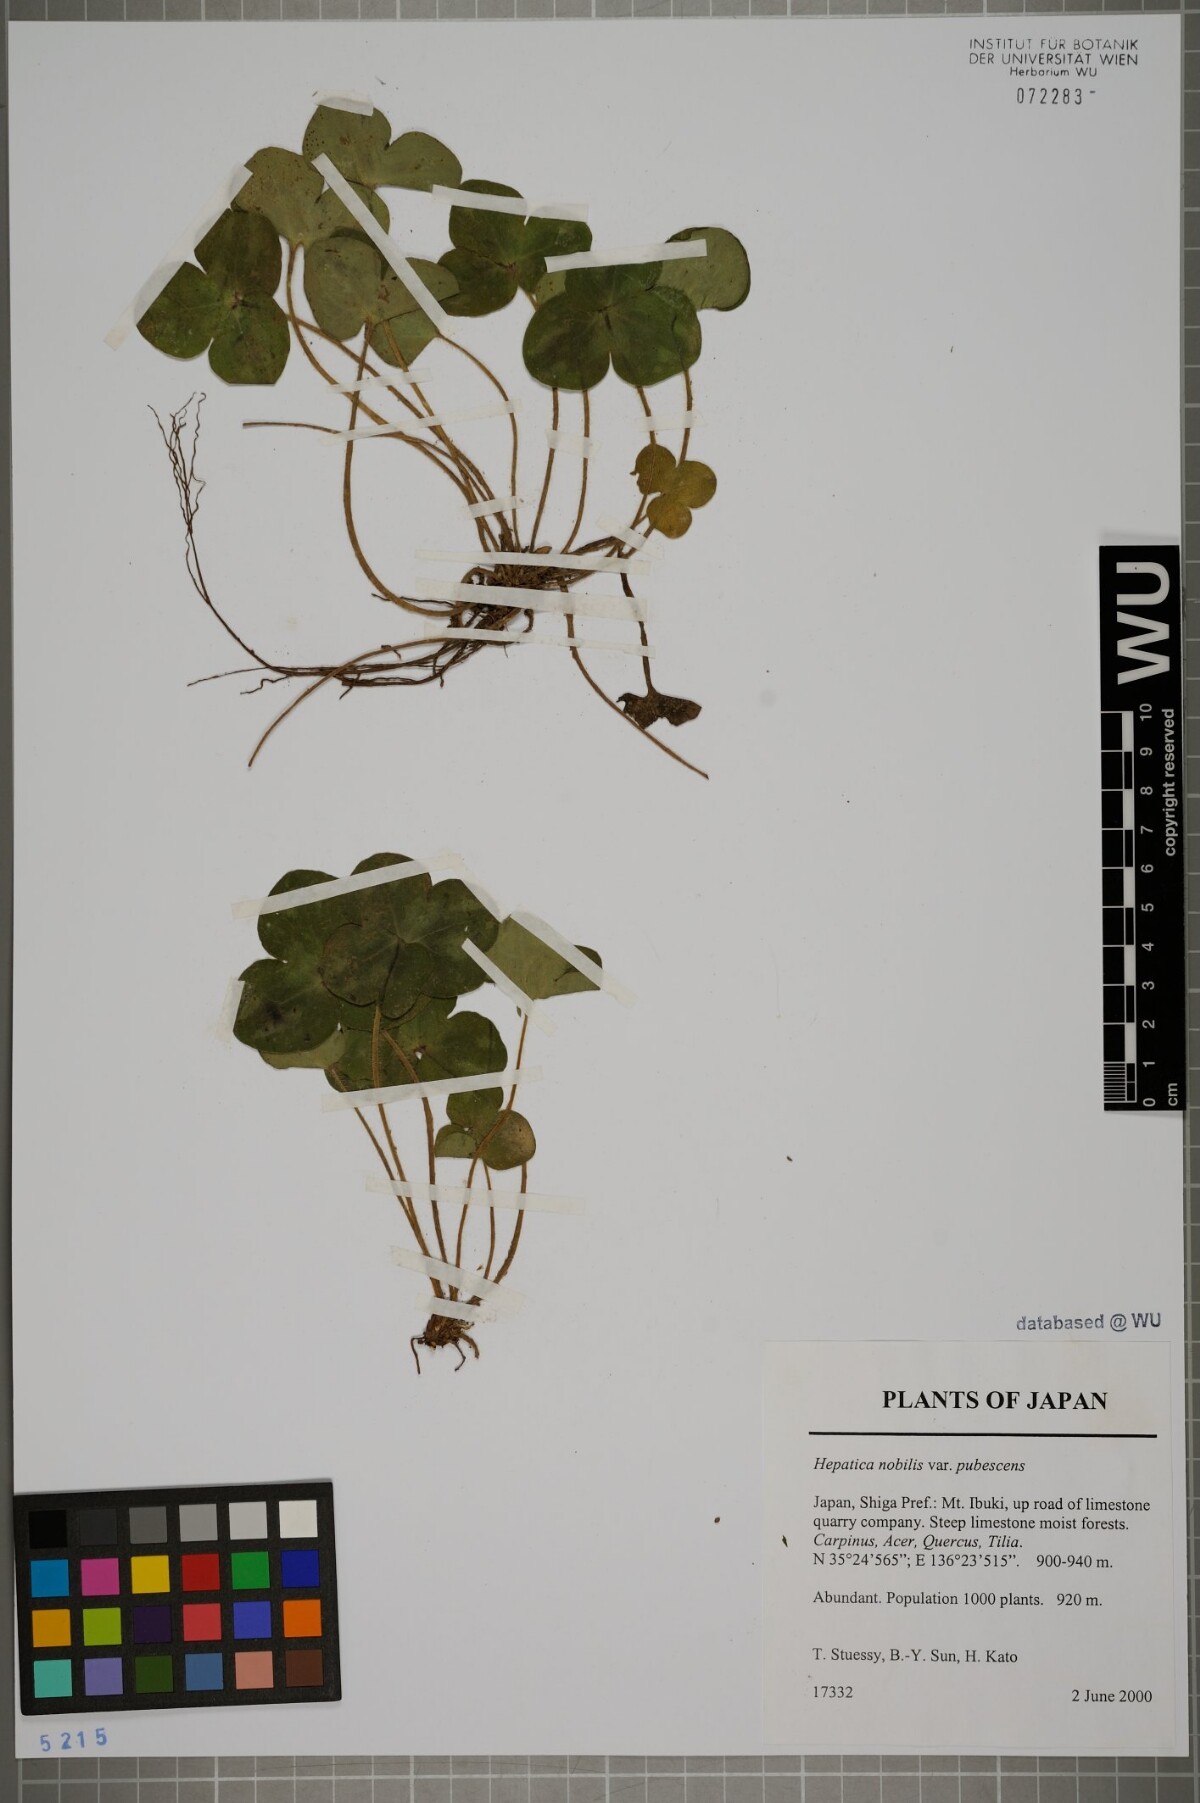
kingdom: Plantae
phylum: Tracheophyta
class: Magnoliopsida
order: Ranunculales
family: Ranunculaceae
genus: Hepatica
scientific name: Hepatica nobilis
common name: Liverleaf
